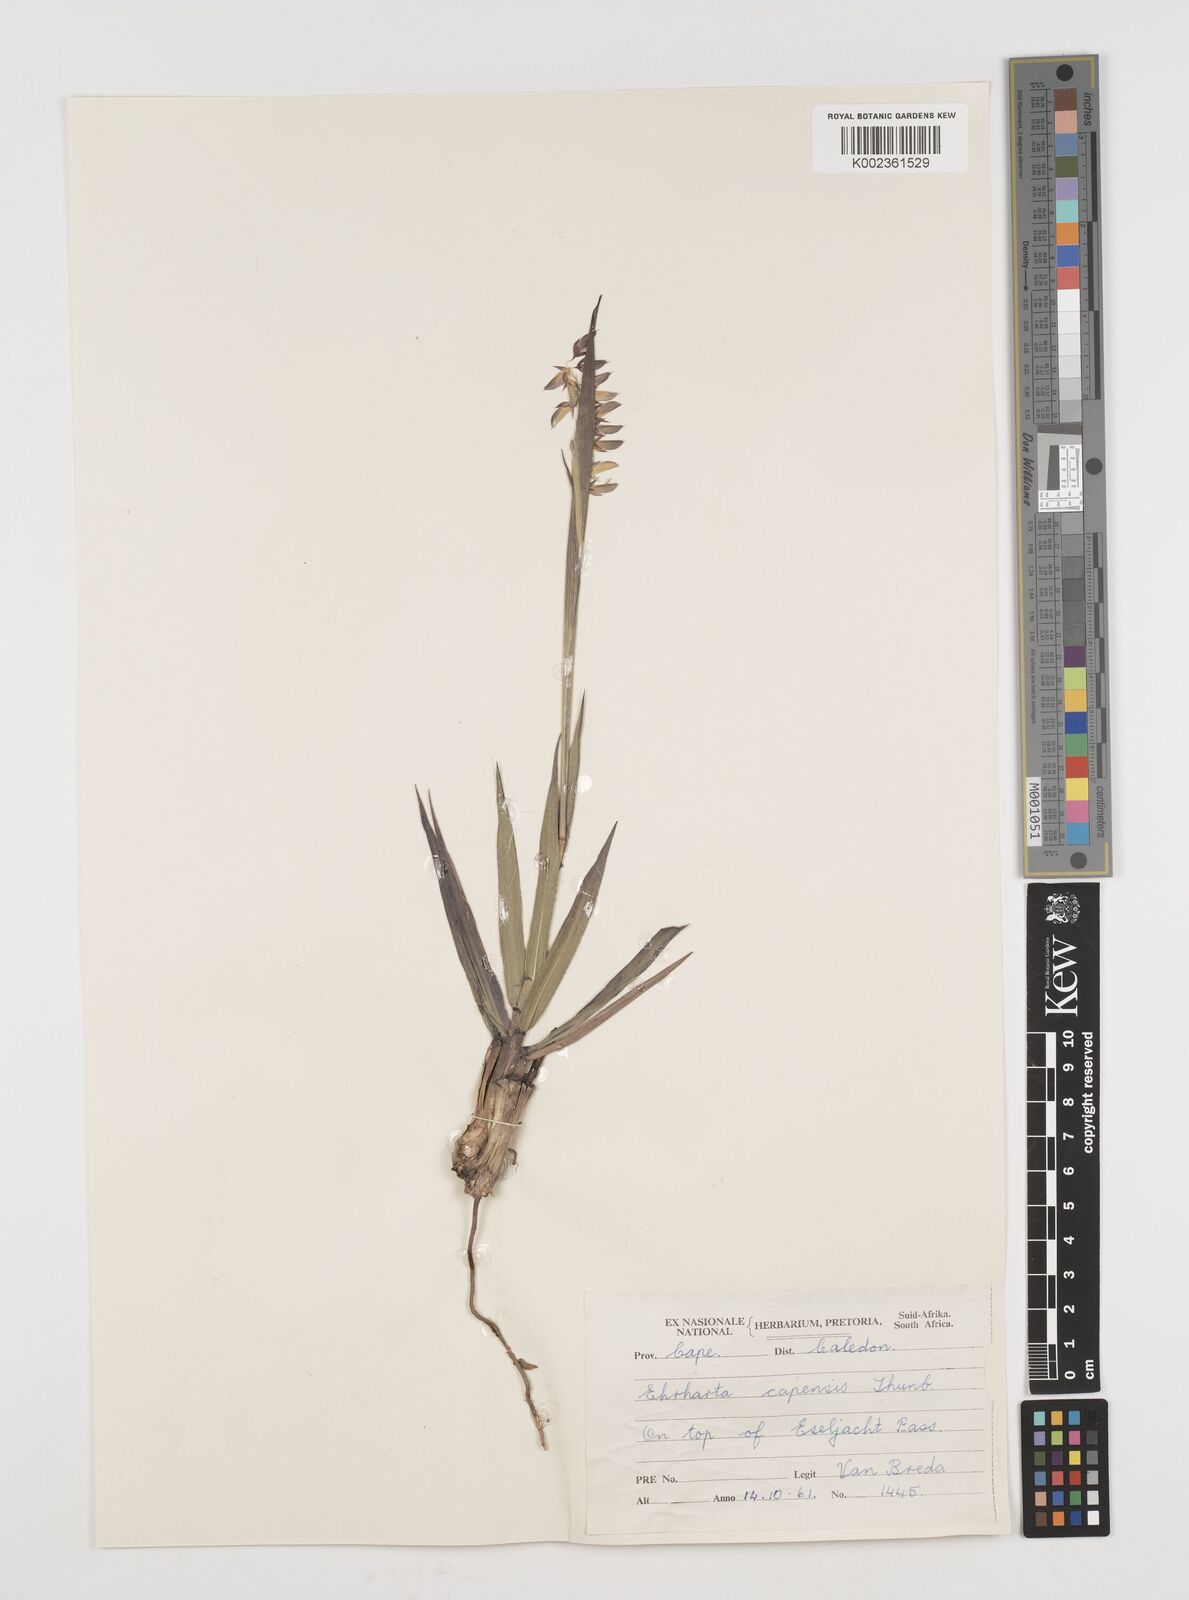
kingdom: Plantae
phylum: Tracheophyta
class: Liliopsida
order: Poales
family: Poaceae
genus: Ehrharta
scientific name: Ehrharta capensis
